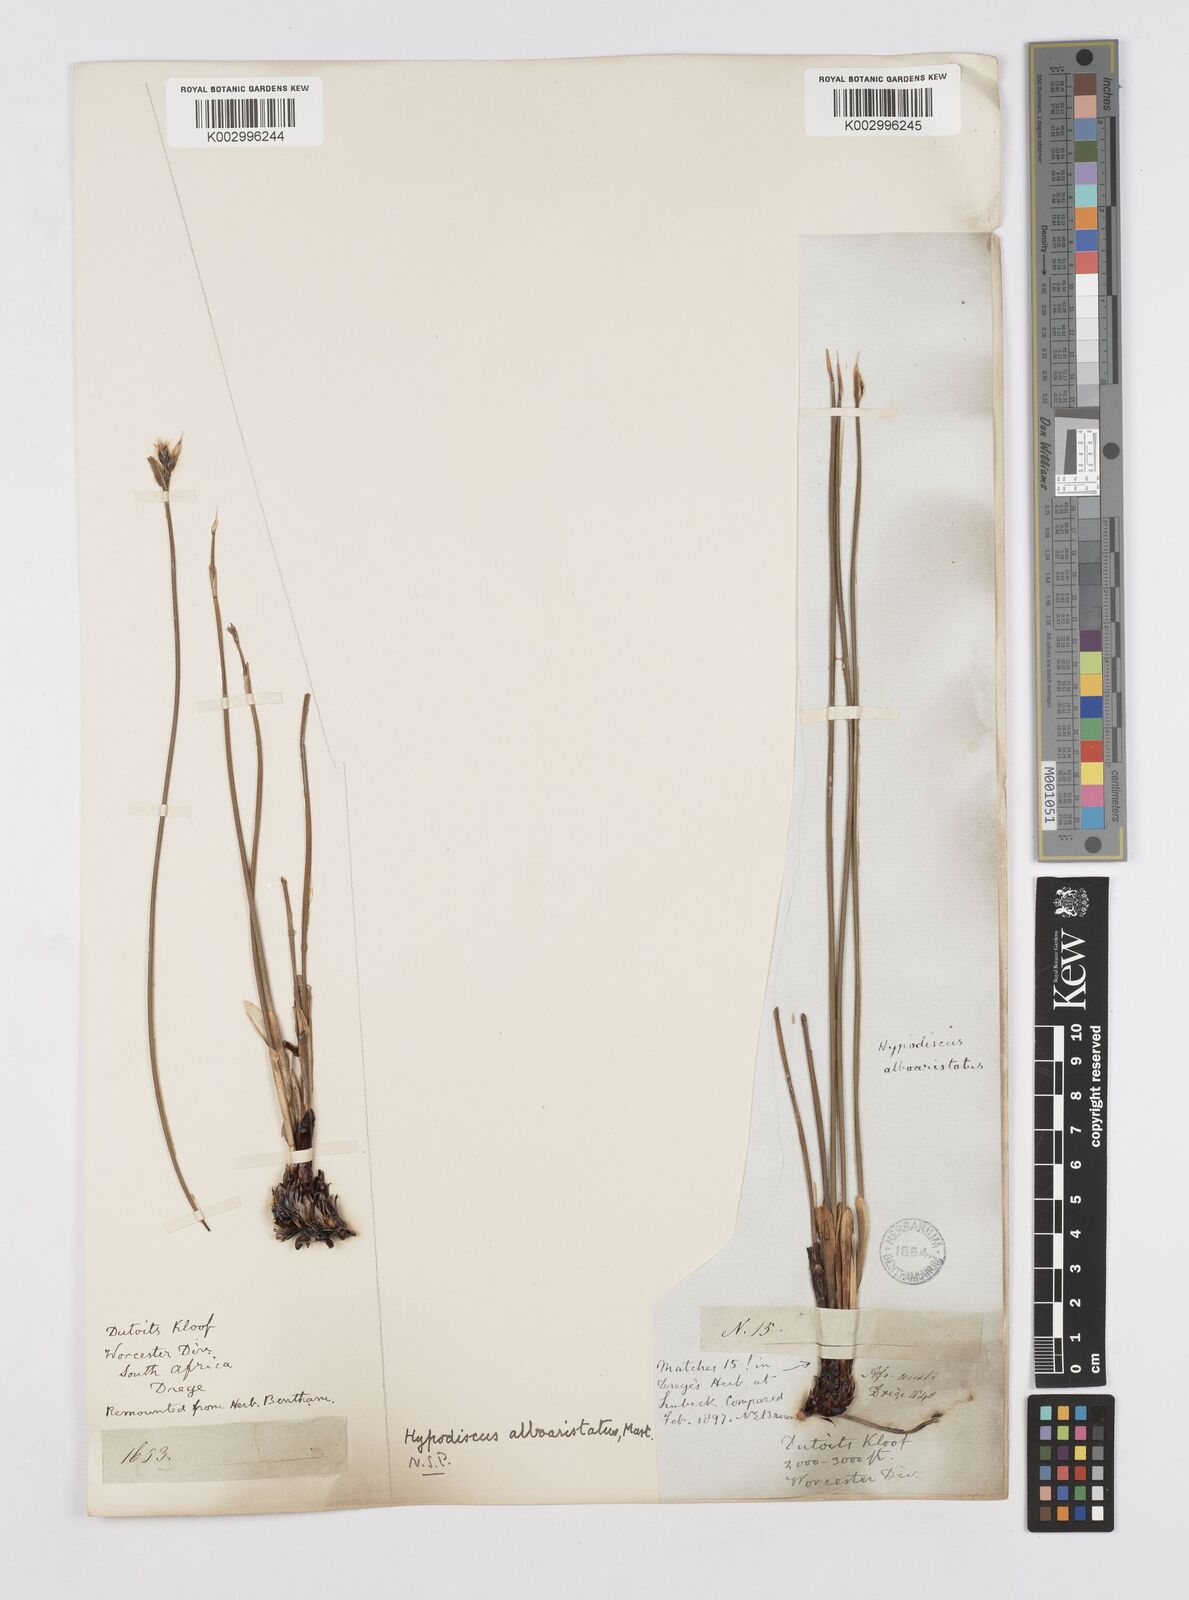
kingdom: Plantae
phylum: Tracheophyta
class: Liliopsida
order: Poales
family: Restionaceae
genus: Hypodiscus
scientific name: Hypodiscus alboaristatus
